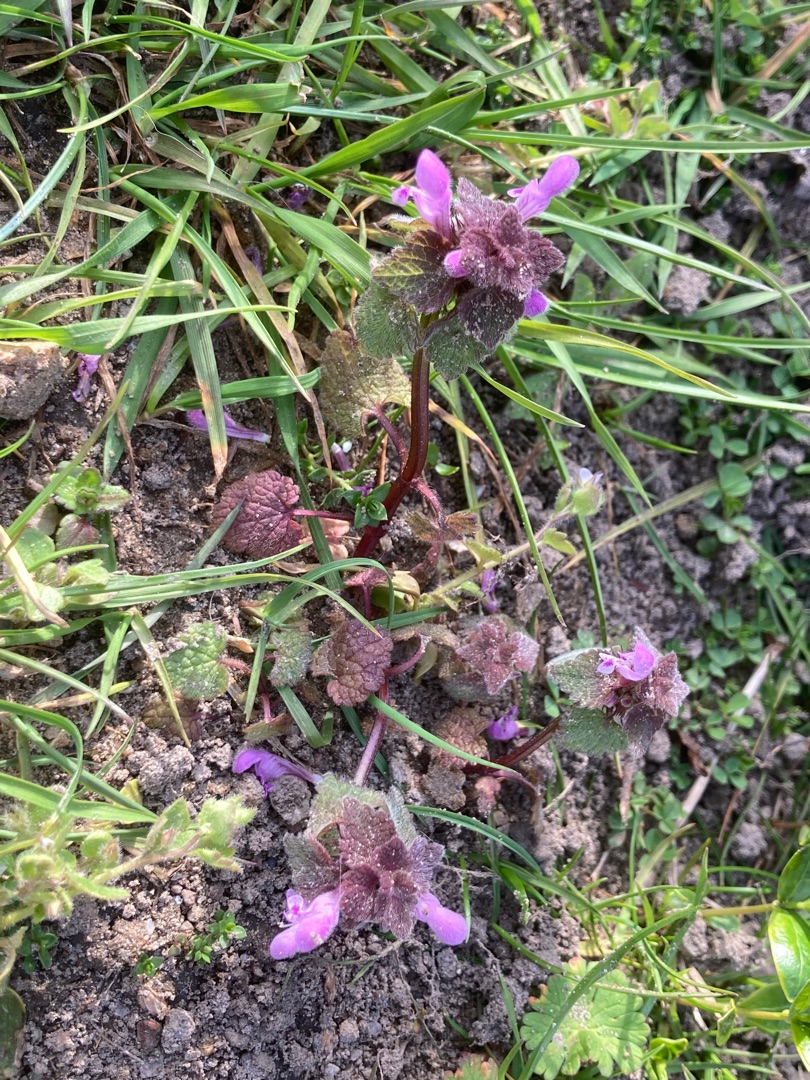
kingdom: Plantae
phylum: Tracheophyta
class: Magnoliopsida
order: Lamiales
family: Lamiaceae
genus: Lamium
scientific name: Lamium purpureum
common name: Rød tvetand
